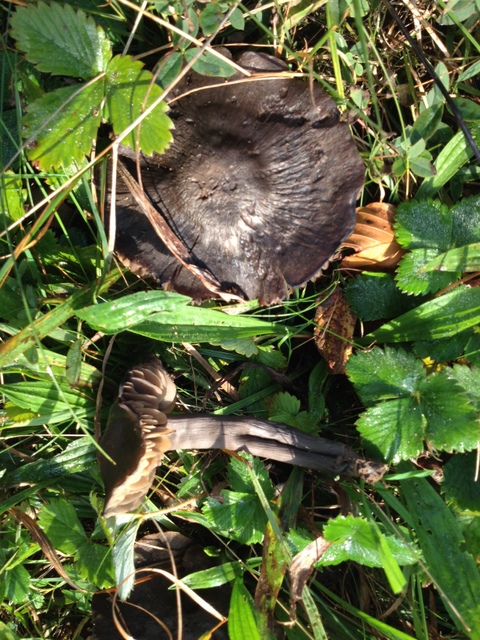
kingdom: Fungi
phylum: Basidiomycota
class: Agaricomycetes
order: Agaricales
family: Hygrophoraceae
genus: Neohygrocybe
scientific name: Neohygrocybe ovina
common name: rødmende vokshat
